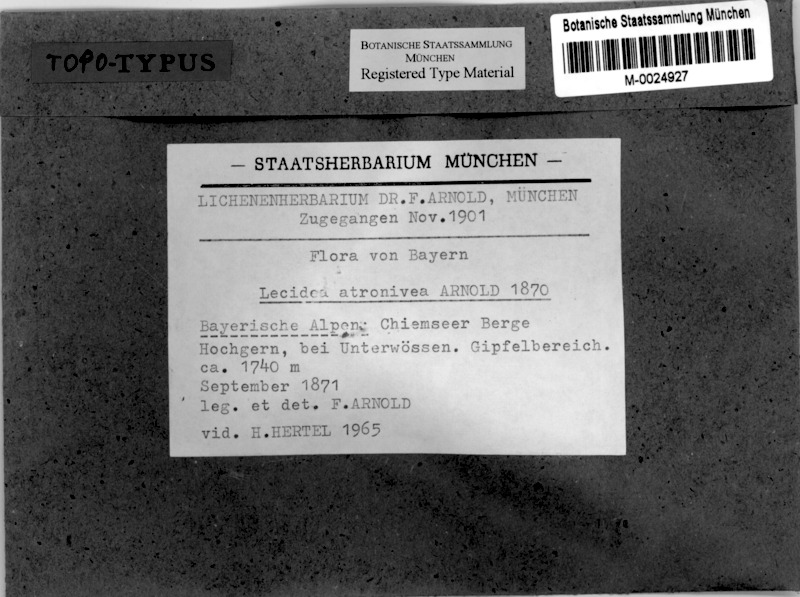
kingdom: Fungi
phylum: Ascomycota
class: Lecanoromycetes
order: Lecanorales
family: Lecanoraceae
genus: Carbonea
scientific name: Carbonea atronivea
